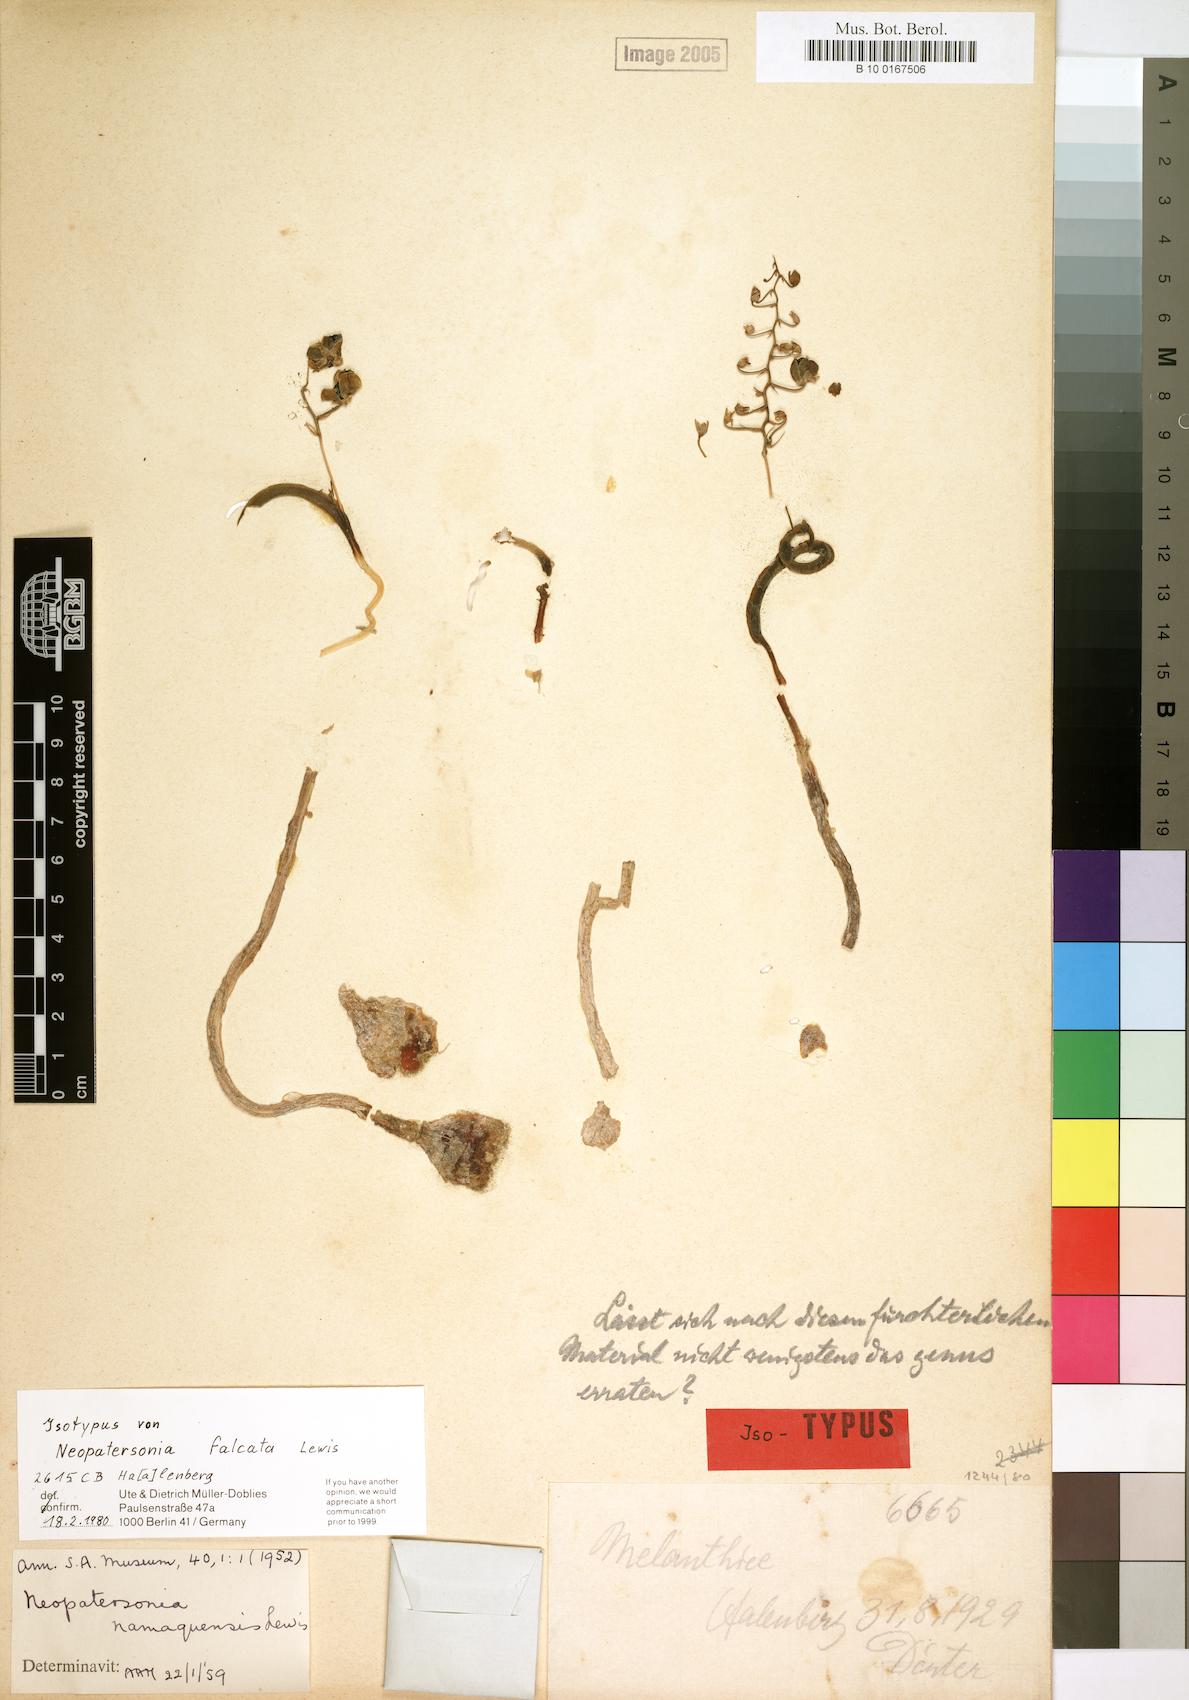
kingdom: Plantae
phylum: Tracheophyta
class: Liliopsida
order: Asparagales
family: Asparagaceae
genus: Ornithogalum
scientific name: Ornithogalum filicaule
